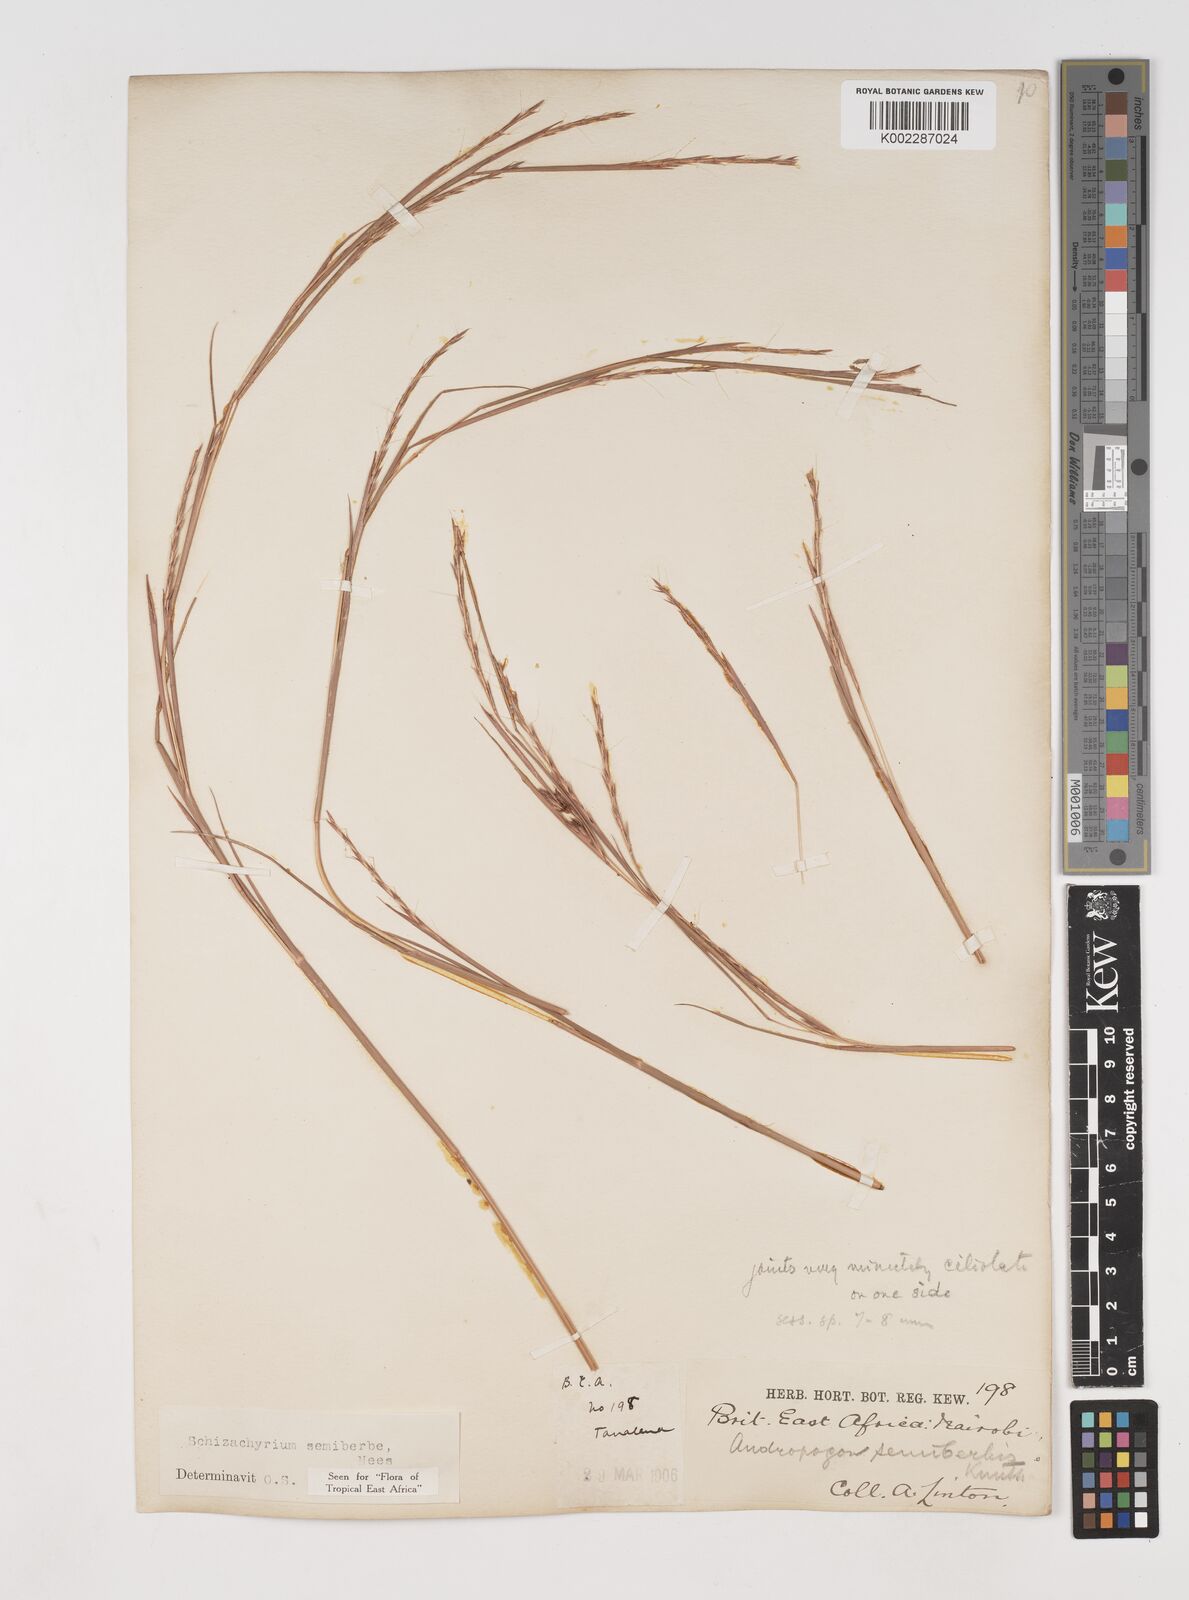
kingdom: Plantae
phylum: Tracheophyta
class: Liliopsida
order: Poales
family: Poaceae
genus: Schizachyrium
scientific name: Schizachyrium sanguineum
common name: Crimson bluestem
